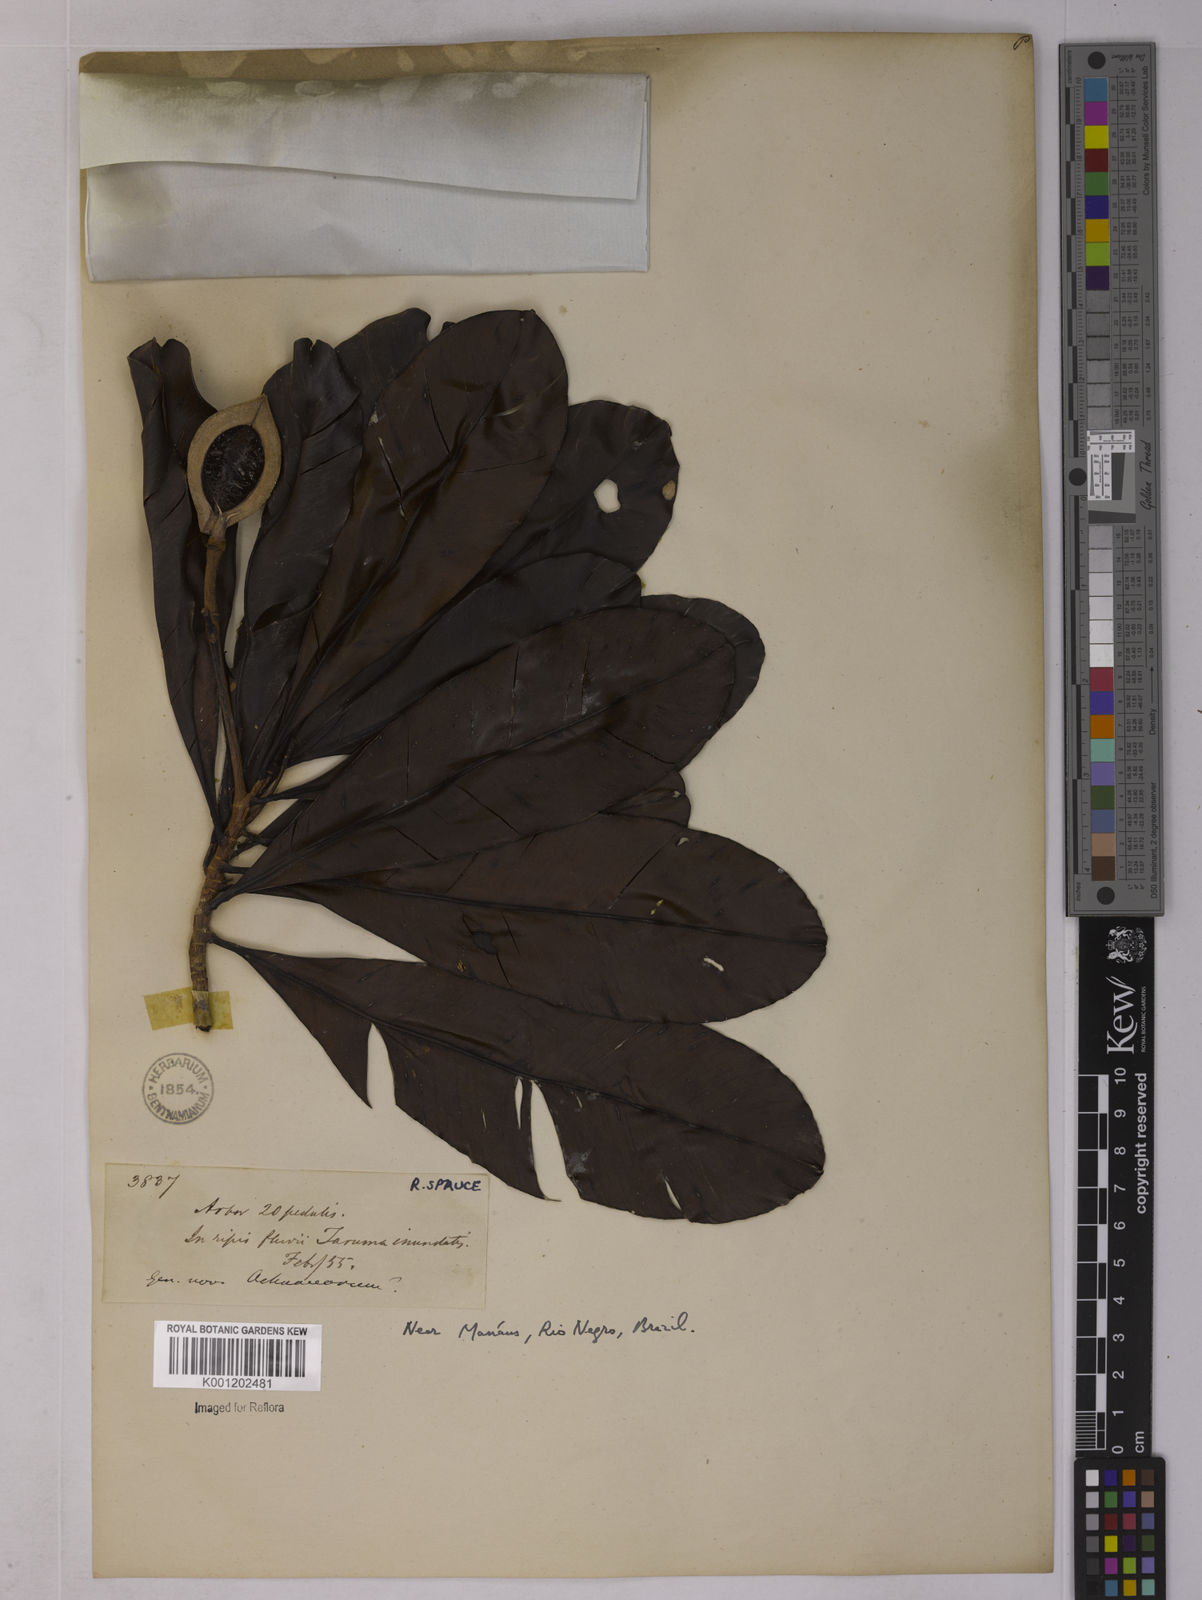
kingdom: Plantae
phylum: Tracheophyta
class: Magnoliopsida
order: Malpighiales
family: Ochnaceae
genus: Wallacea
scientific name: Wallacea insignis
